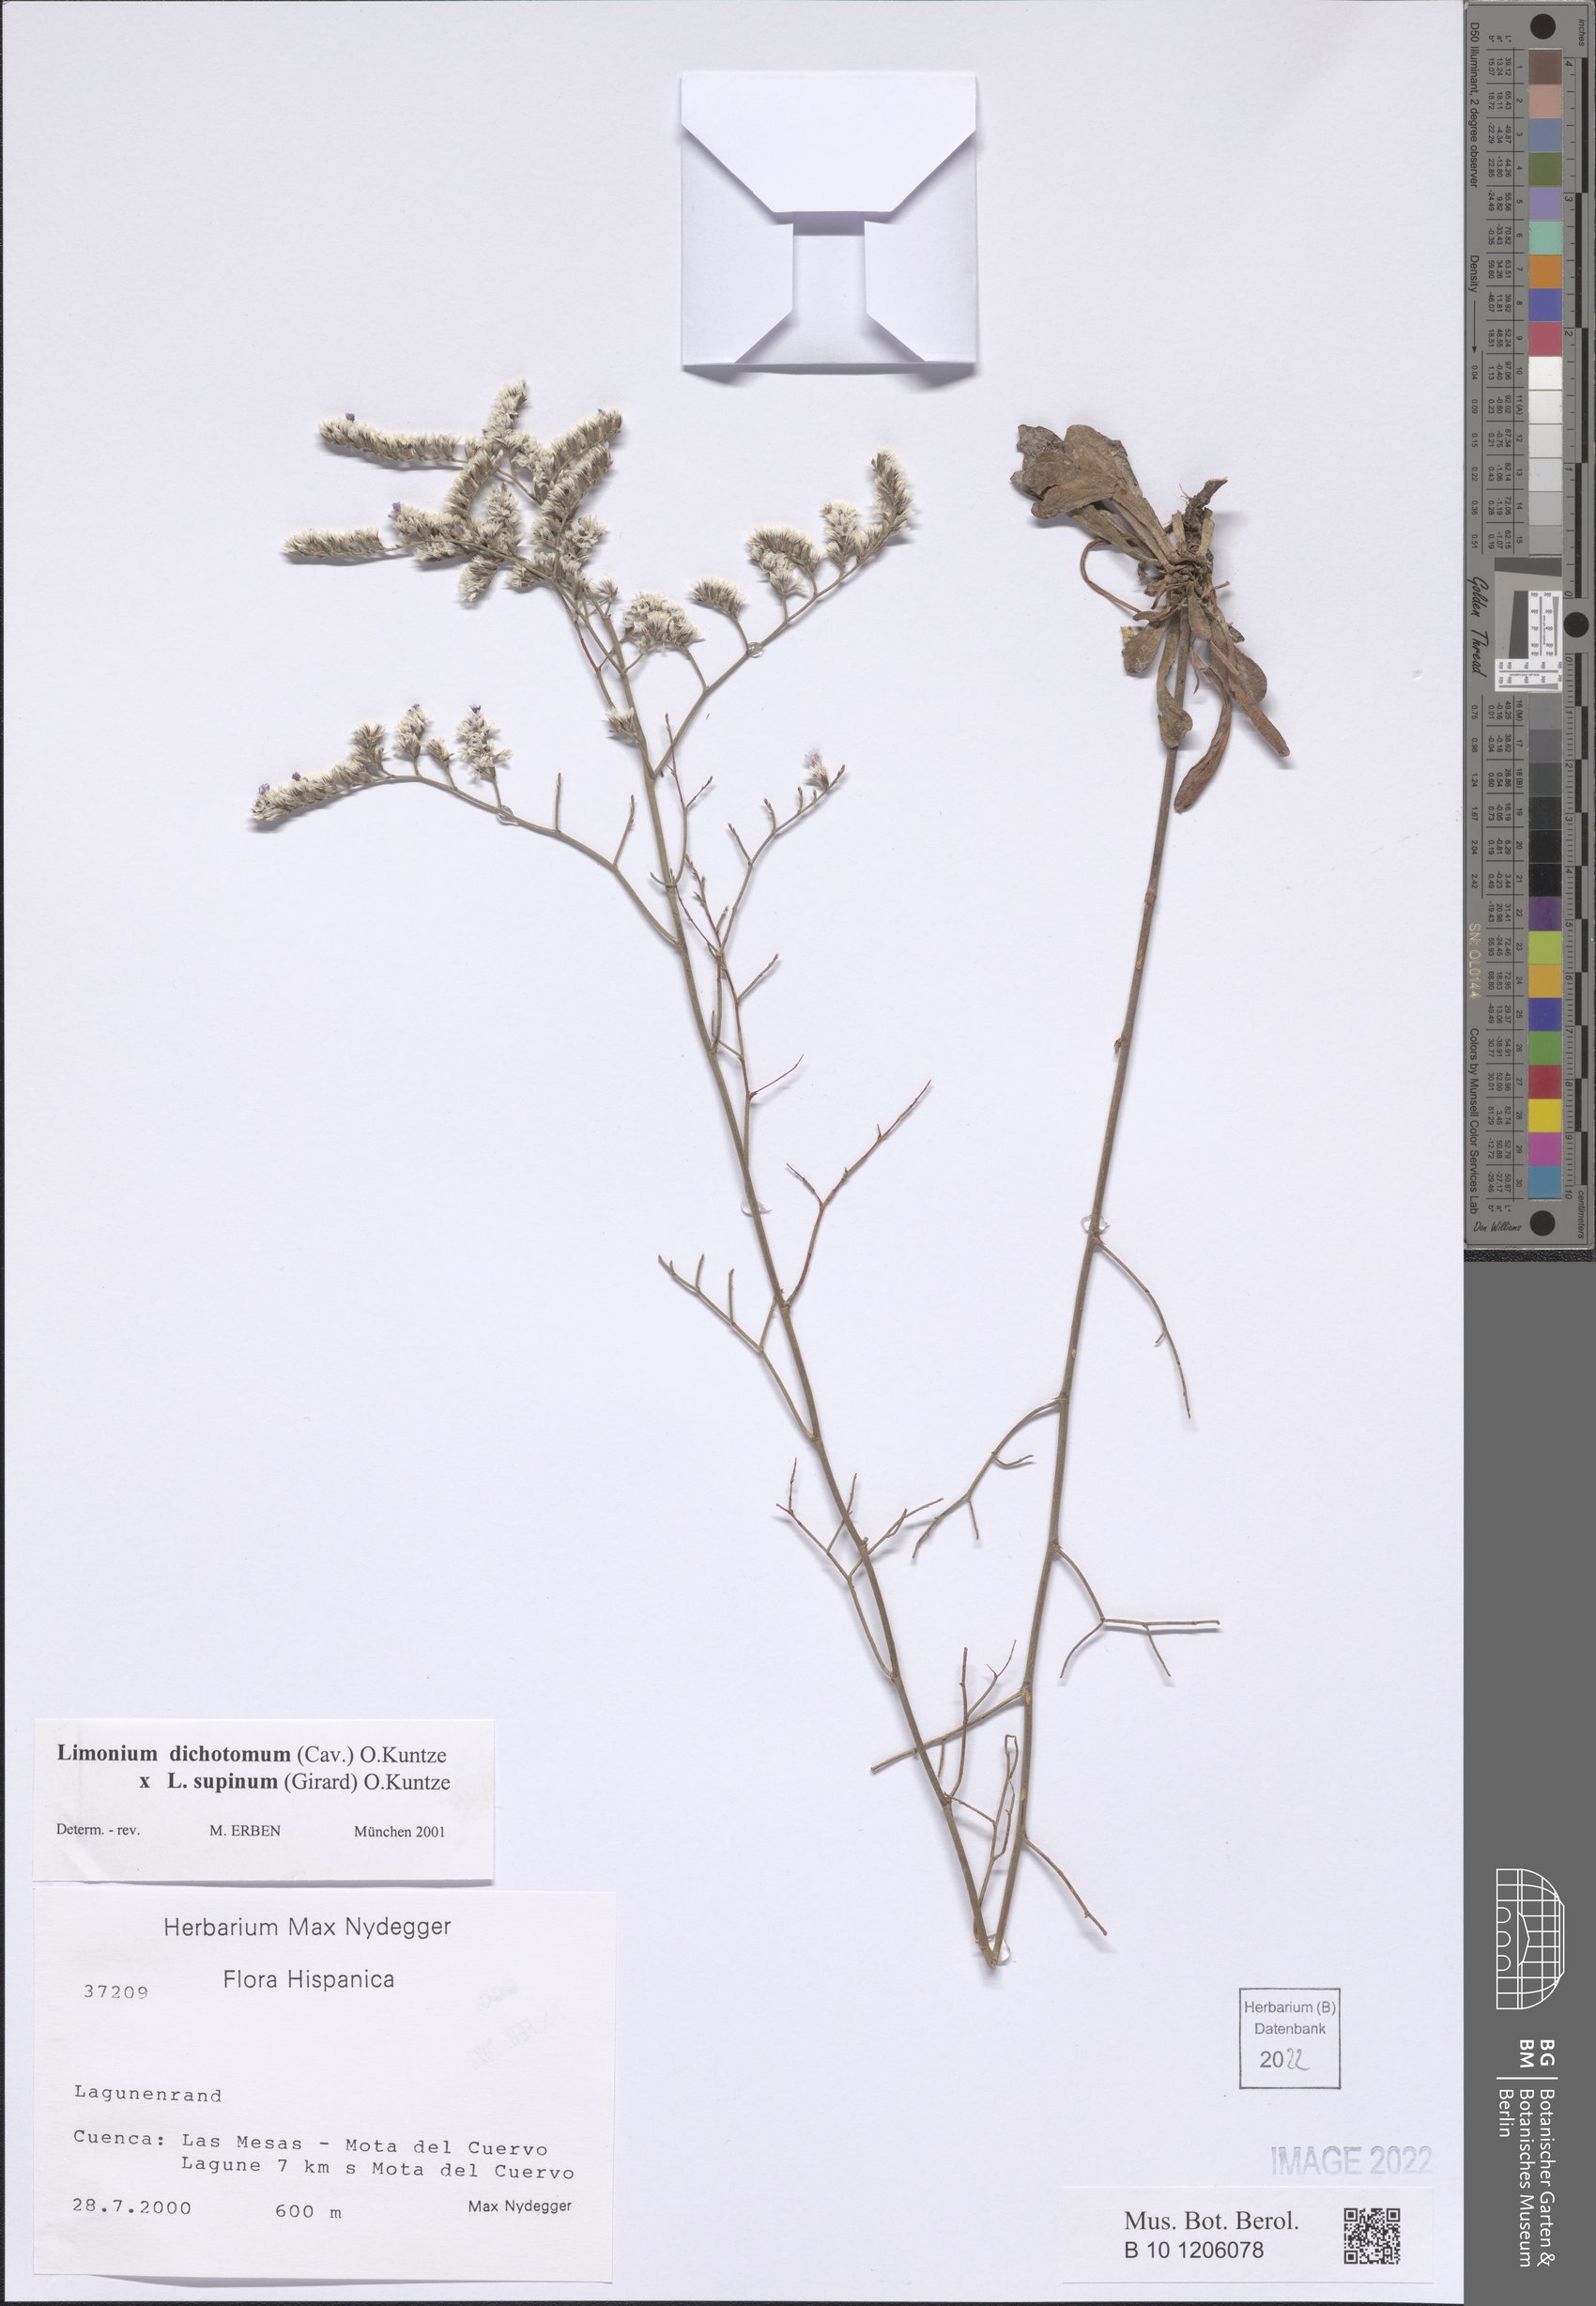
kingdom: Plantae
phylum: Tracheophyta
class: Magnoliopsida
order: Caryophyllales
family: Plumbaginaceae
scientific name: Plumbaginaceae
